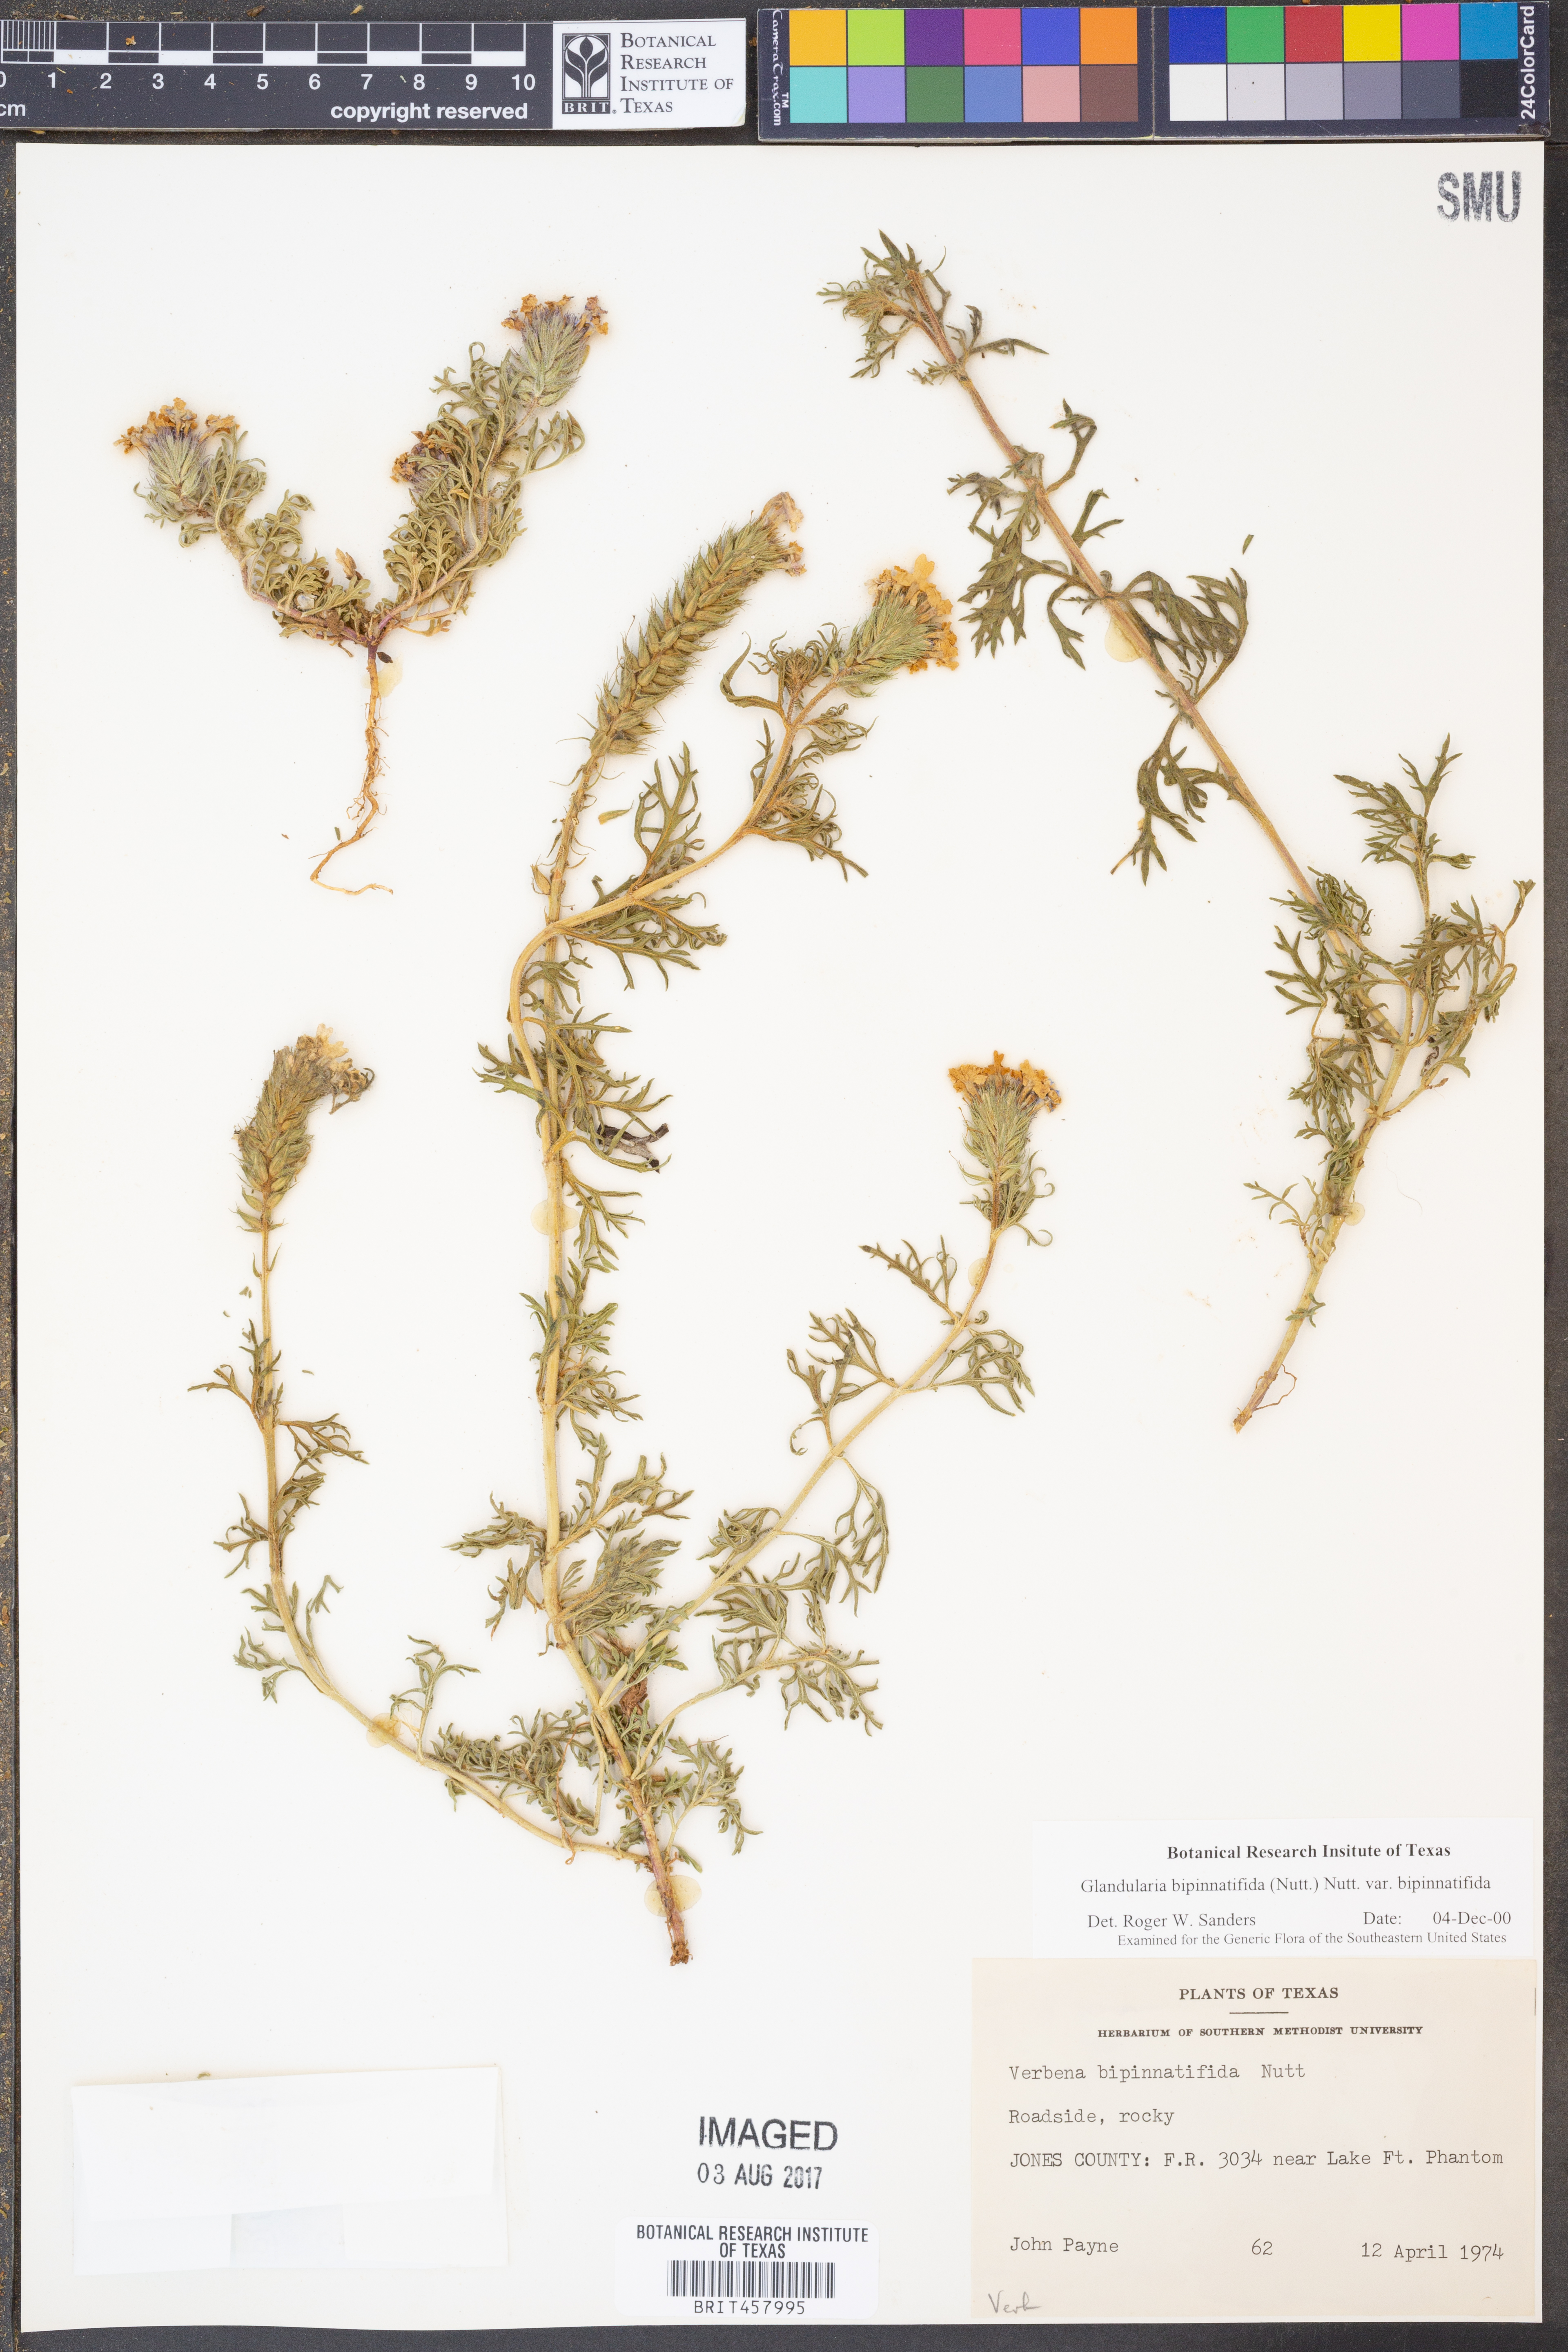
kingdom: Plantae
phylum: Tracheophyta
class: Magnoliopsida
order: Lamiales
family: Verbenaceae
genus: Verbena
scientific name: Verbena bipinnatifida
